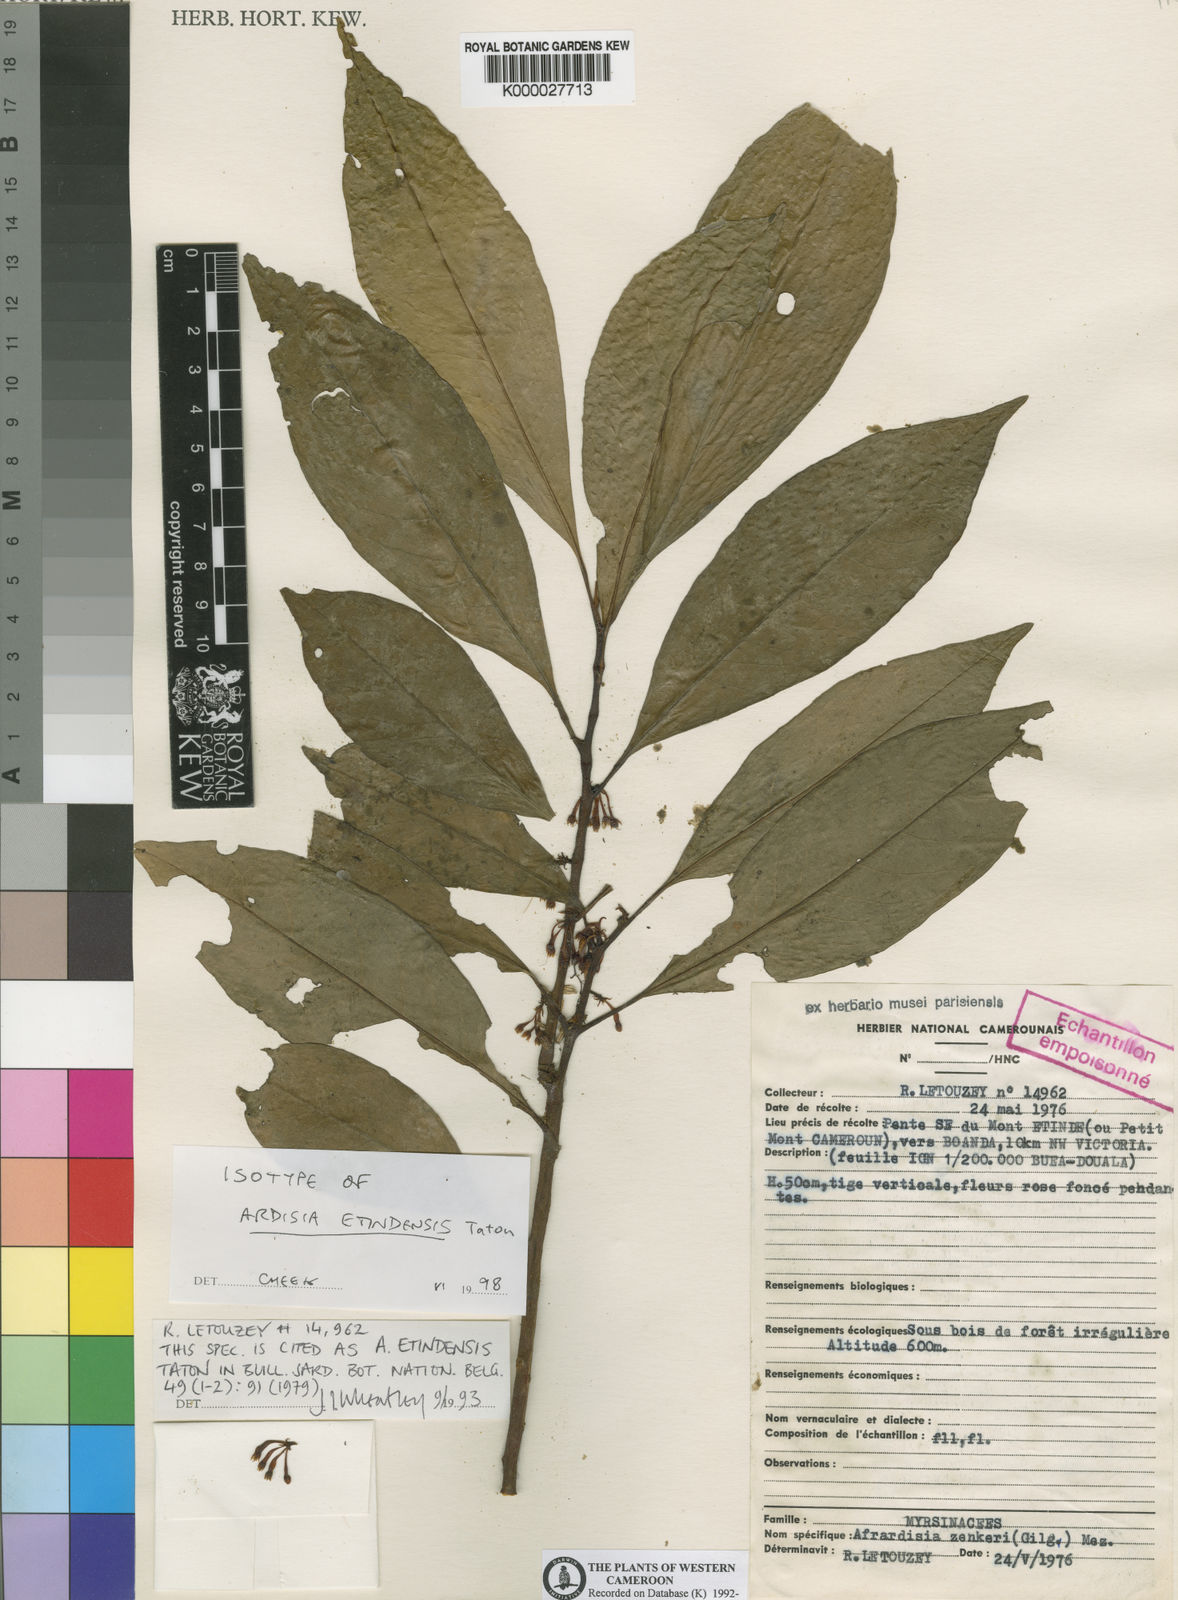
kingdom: Plantae
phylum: Tracheophyta
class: Magnoliopsida
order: Ericales
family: Primulaceae
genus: Ardisia
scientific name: Ardisia etindensis
